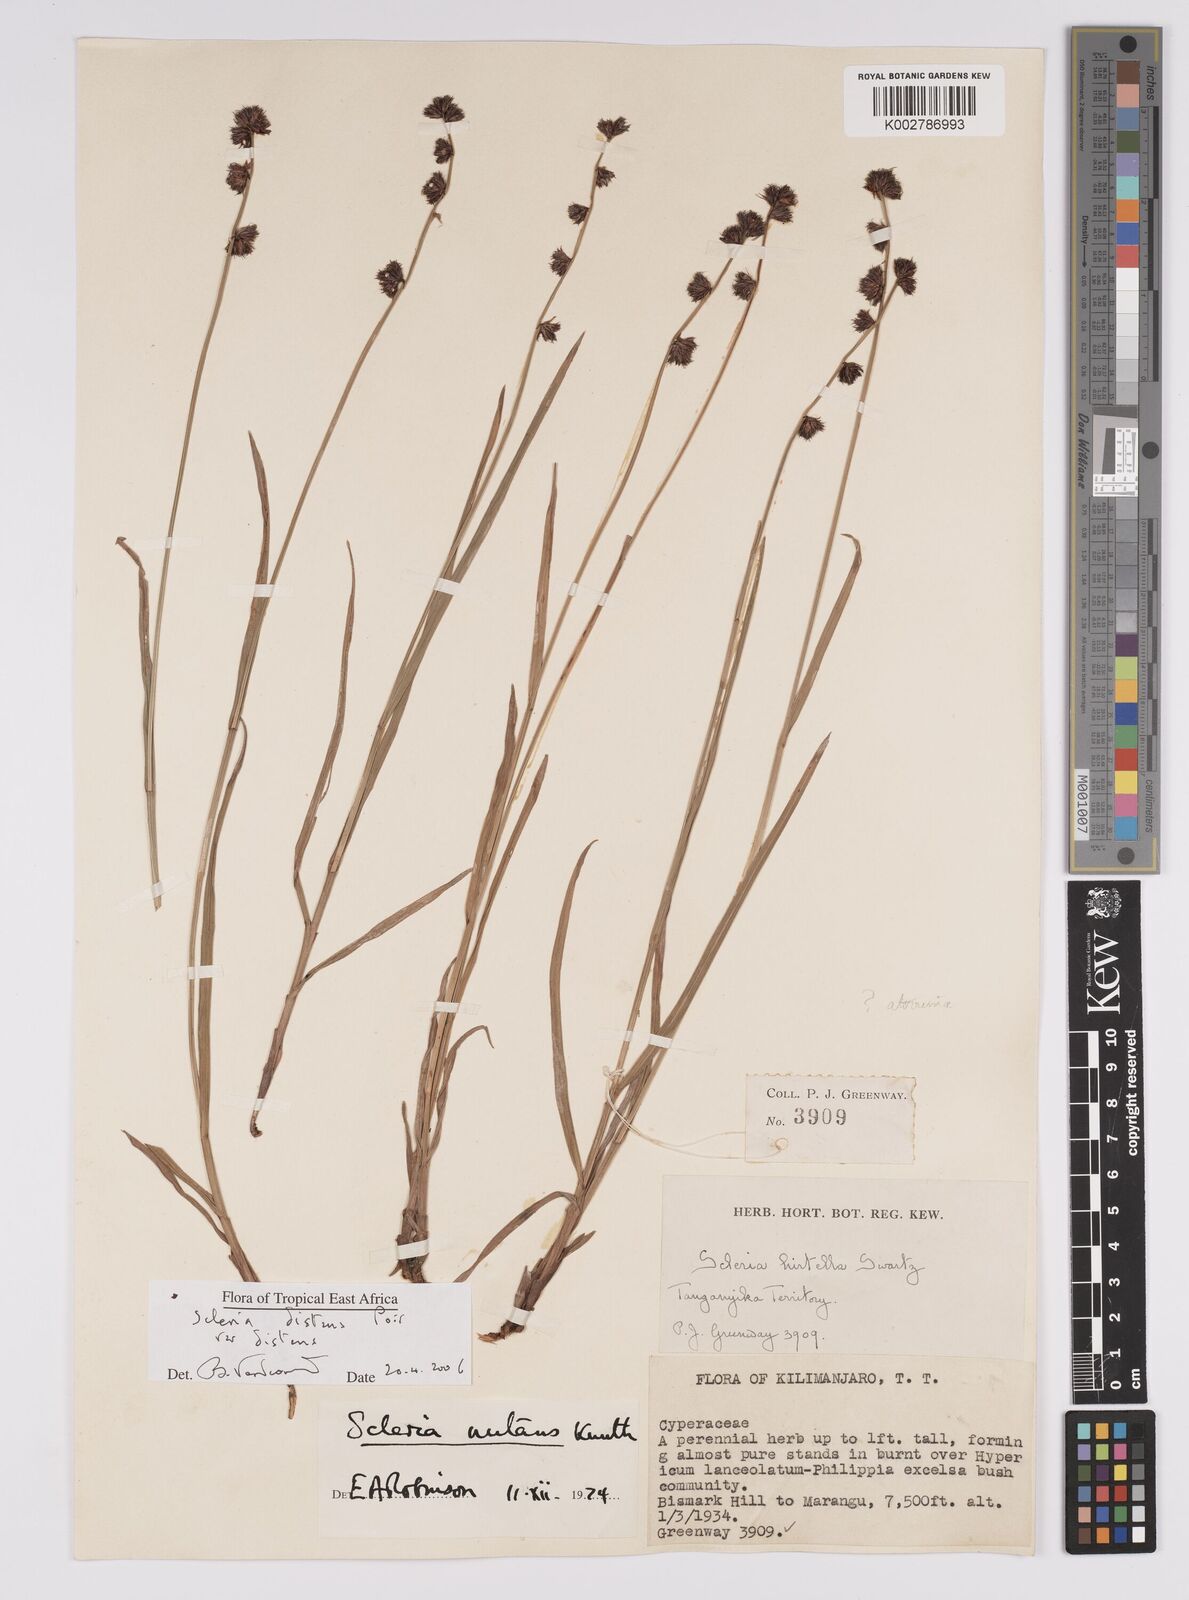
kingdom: Plantae
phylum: Tracheophyta
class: Liliopsida
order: Poales
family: Cyperaceae
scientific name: Cyperaceae
